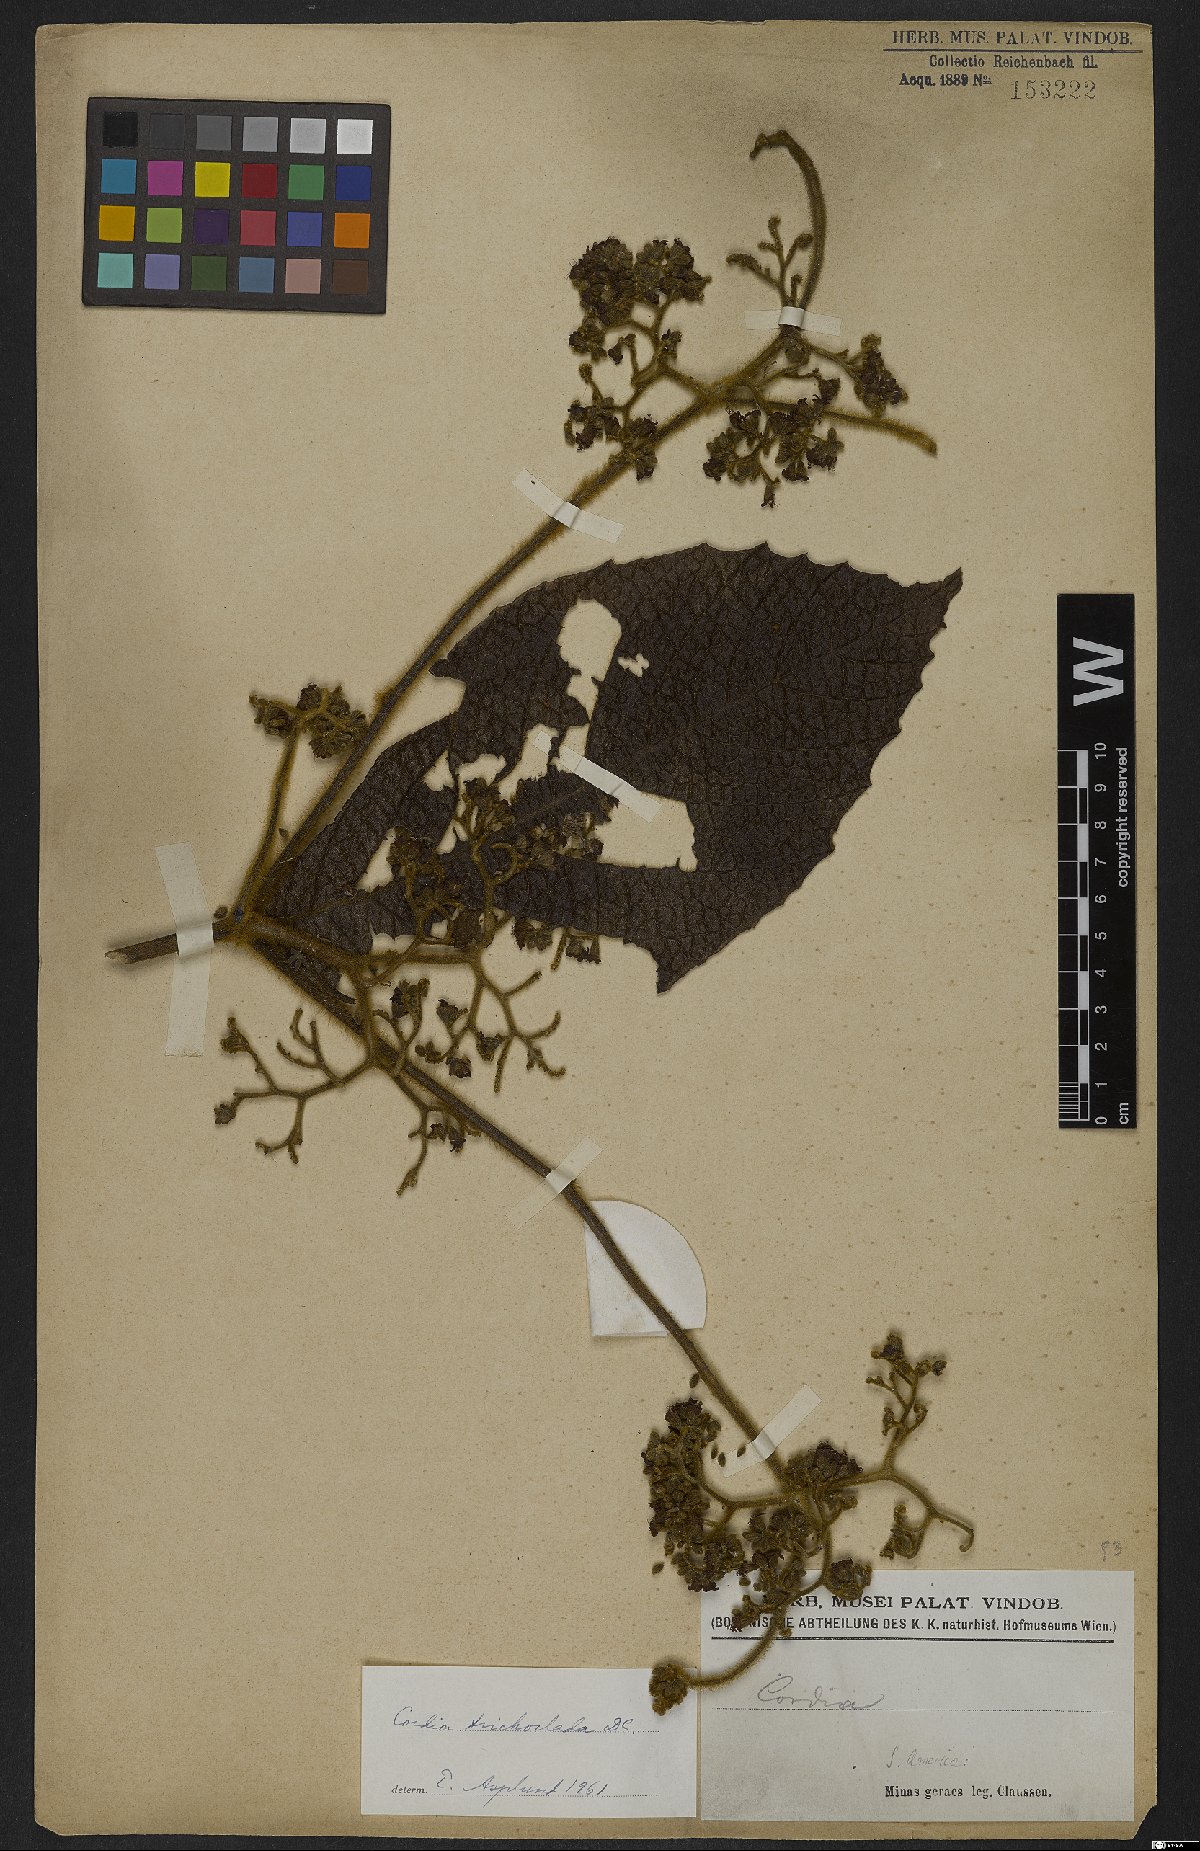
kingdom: Plantae
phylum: Tracheophyta
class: Magnoliopsida
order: Boraginales
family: Cordiaceae
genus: Cordia
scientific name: Cordia trachyphylla
